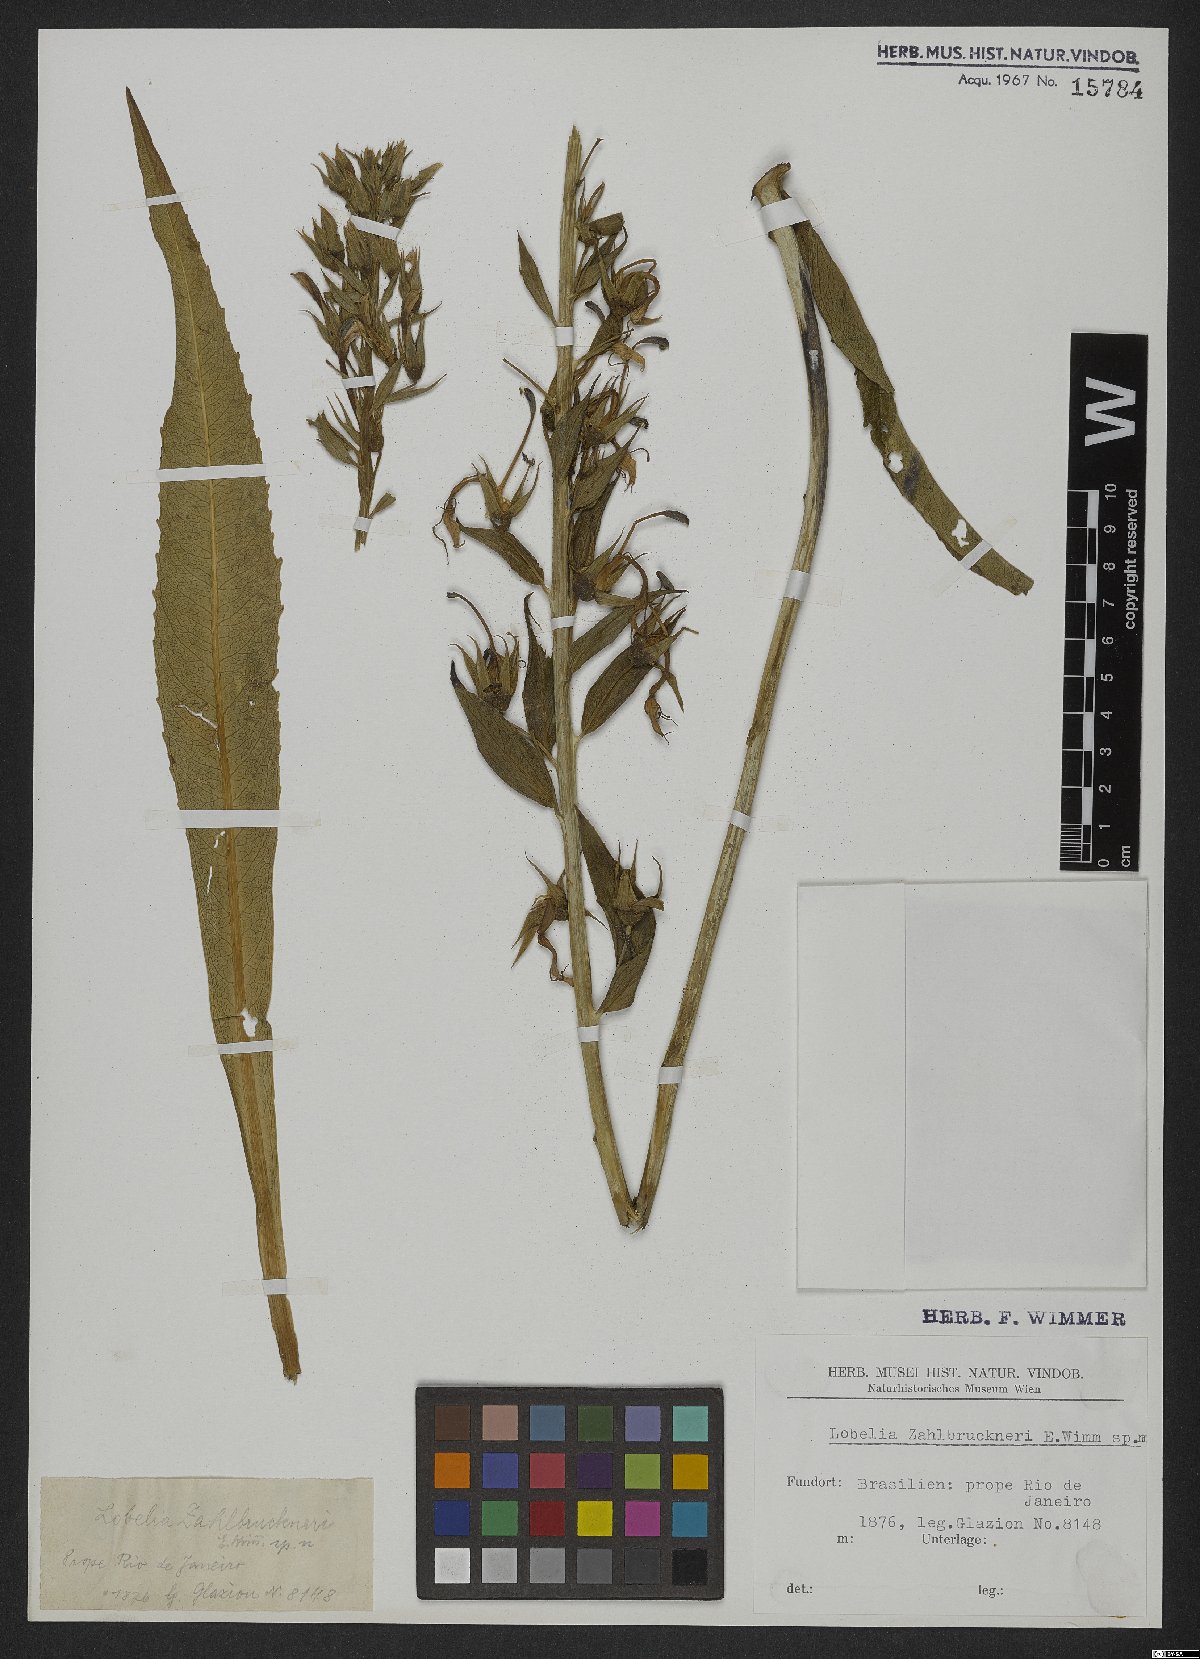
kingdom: Plantae
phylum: Tracheophyta
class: Magnoliopsida
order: Asterales
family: Campanulaceae
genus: Lobelia
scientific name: Lobelia glazioviana
